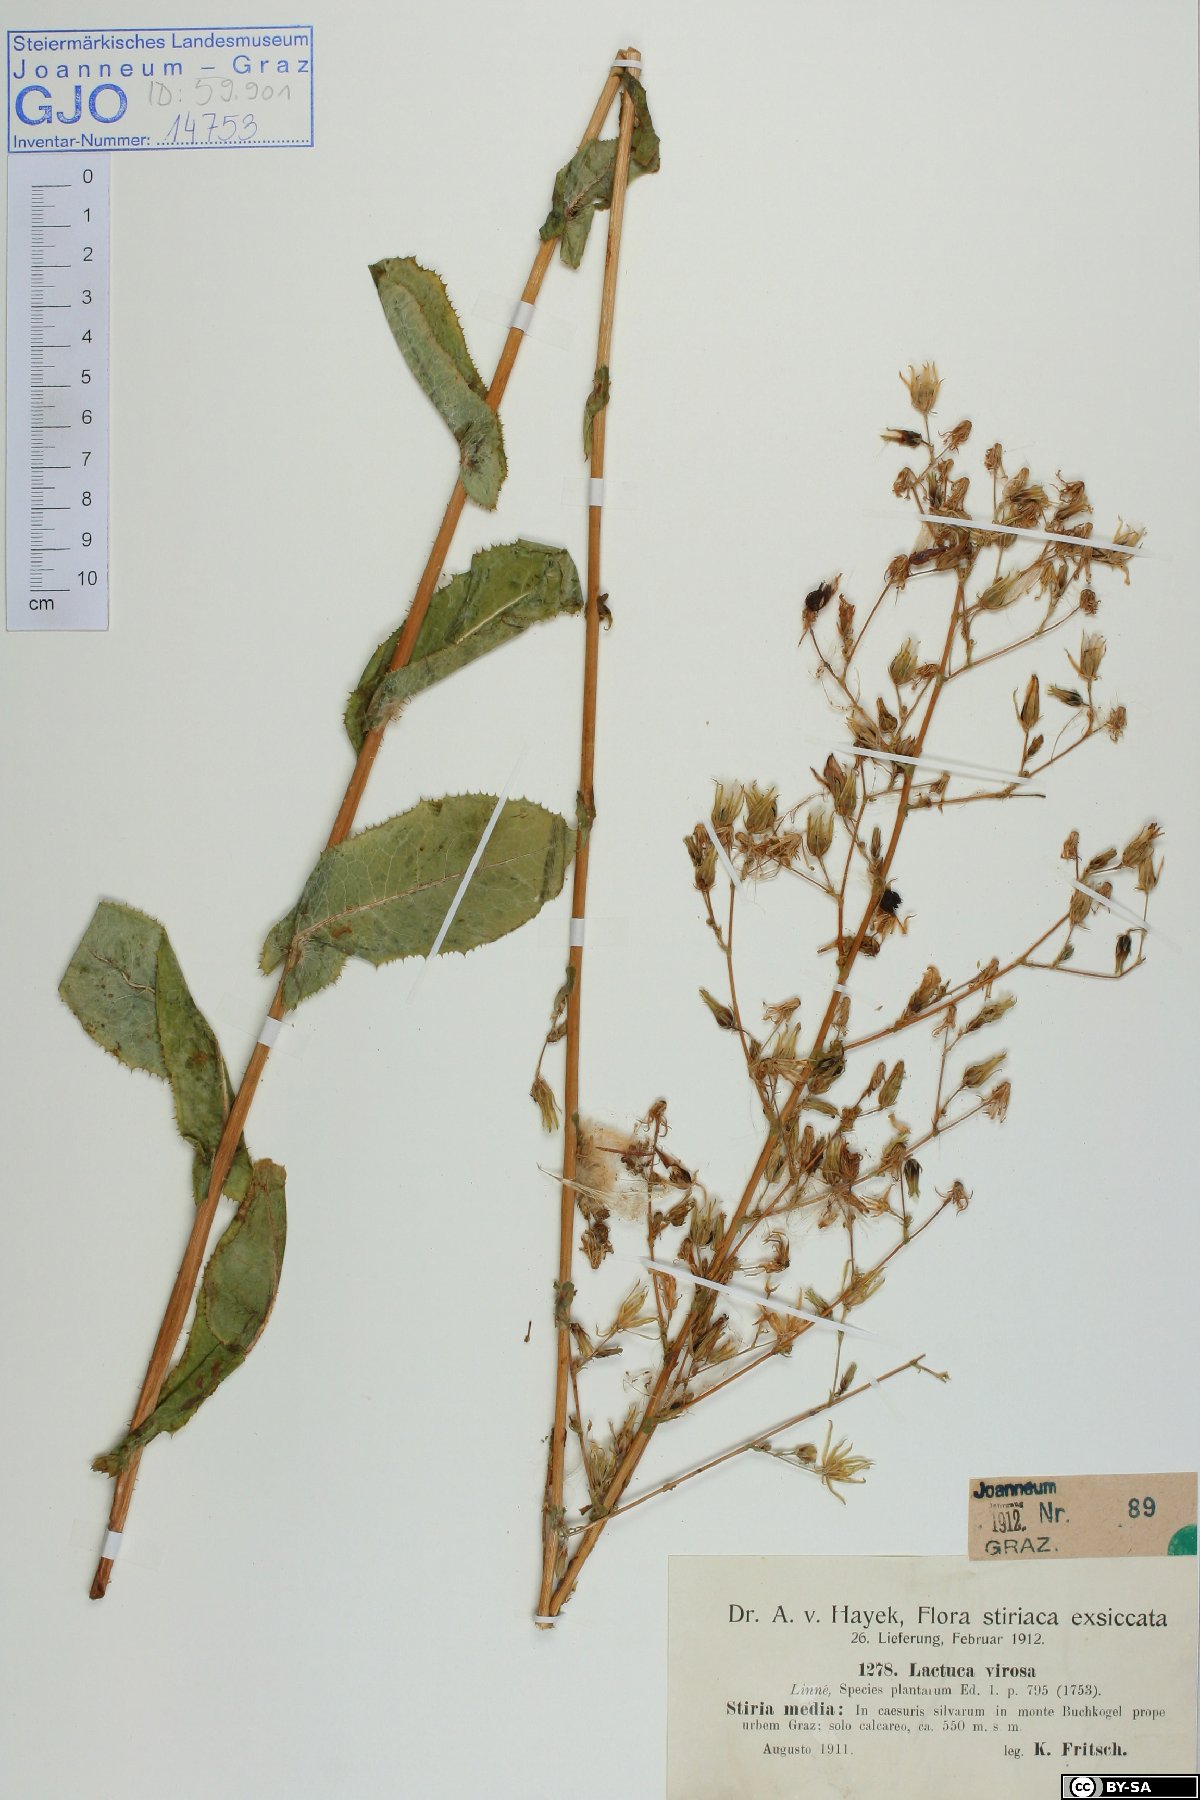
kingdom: Plantae
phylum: Tracheophyta
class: Magnoliopsida
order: Asterales
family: Asteraceae
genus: Lactuca
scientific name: Lactuca virosa
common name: Great lettuce
